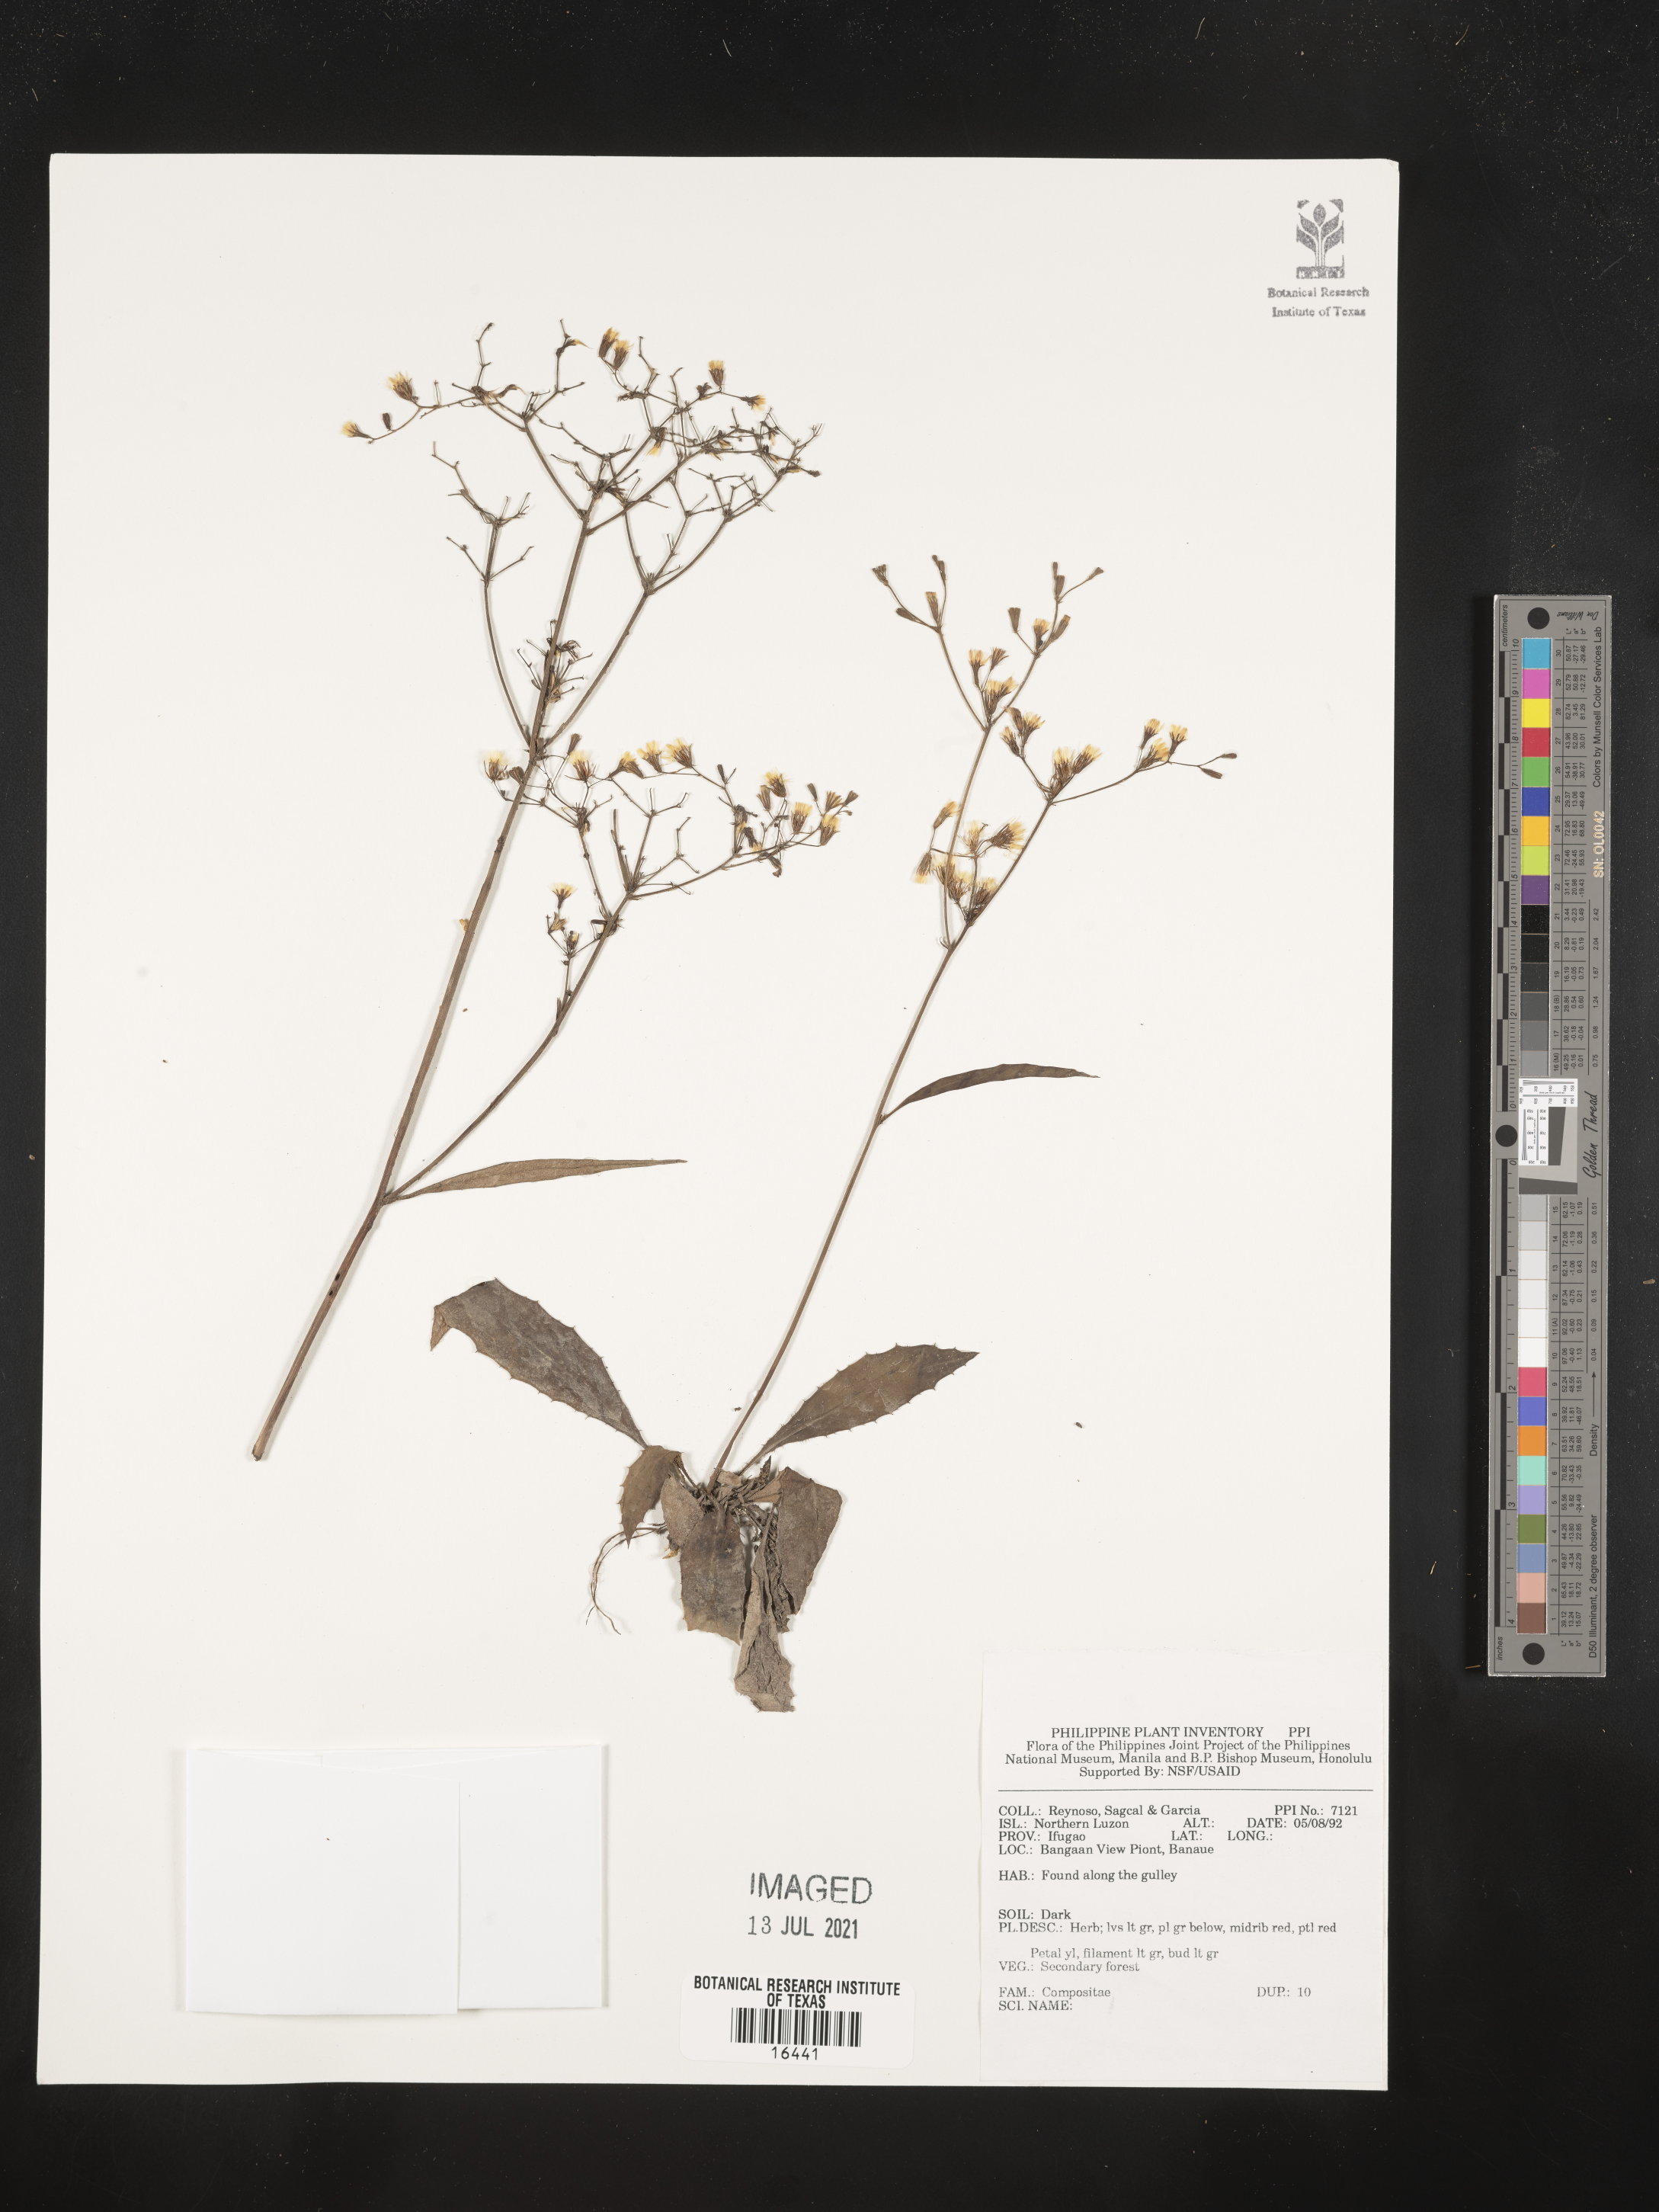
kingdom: Plantae
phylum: Tracheophyta
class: Magnoliopsida
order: Asterales
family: Asteraceae
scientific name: Asteraceae
